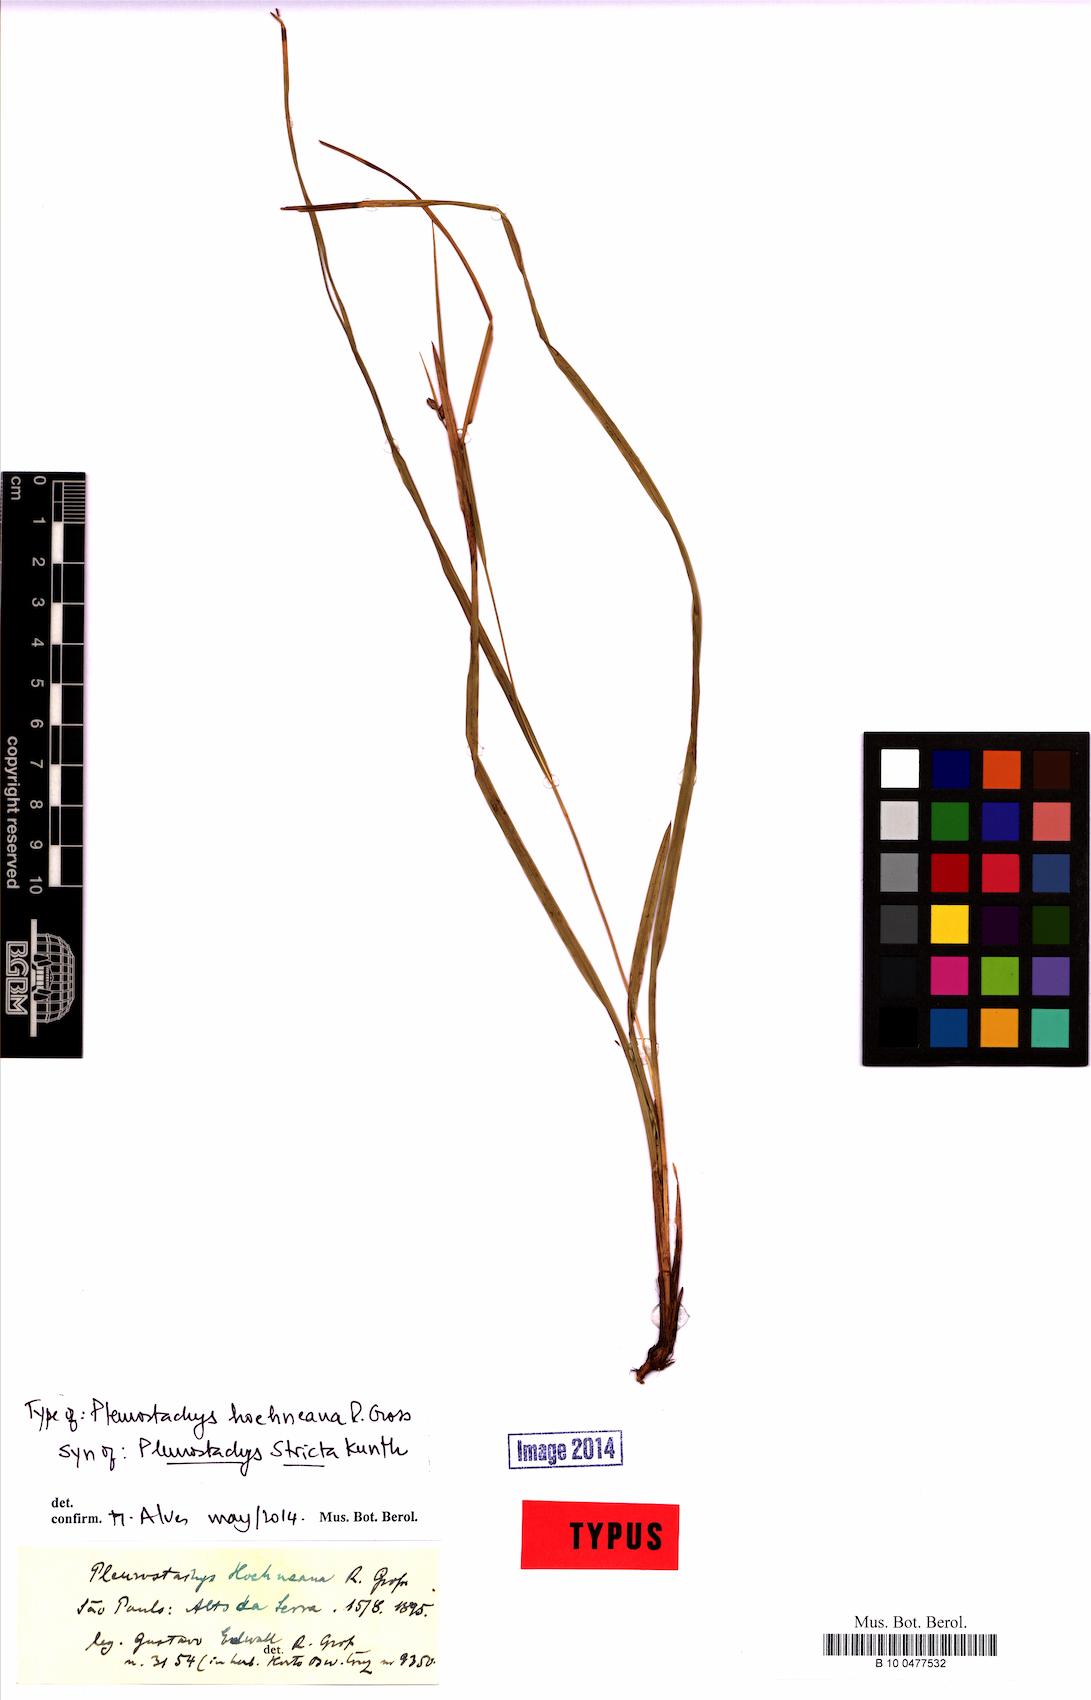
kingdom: Plantae
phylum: Tracheophyta
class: Liliopsida
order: Poales
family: Cyperaceae
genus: Rhynchospora
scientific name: Rhynchospora Pleurostachys muelleri
